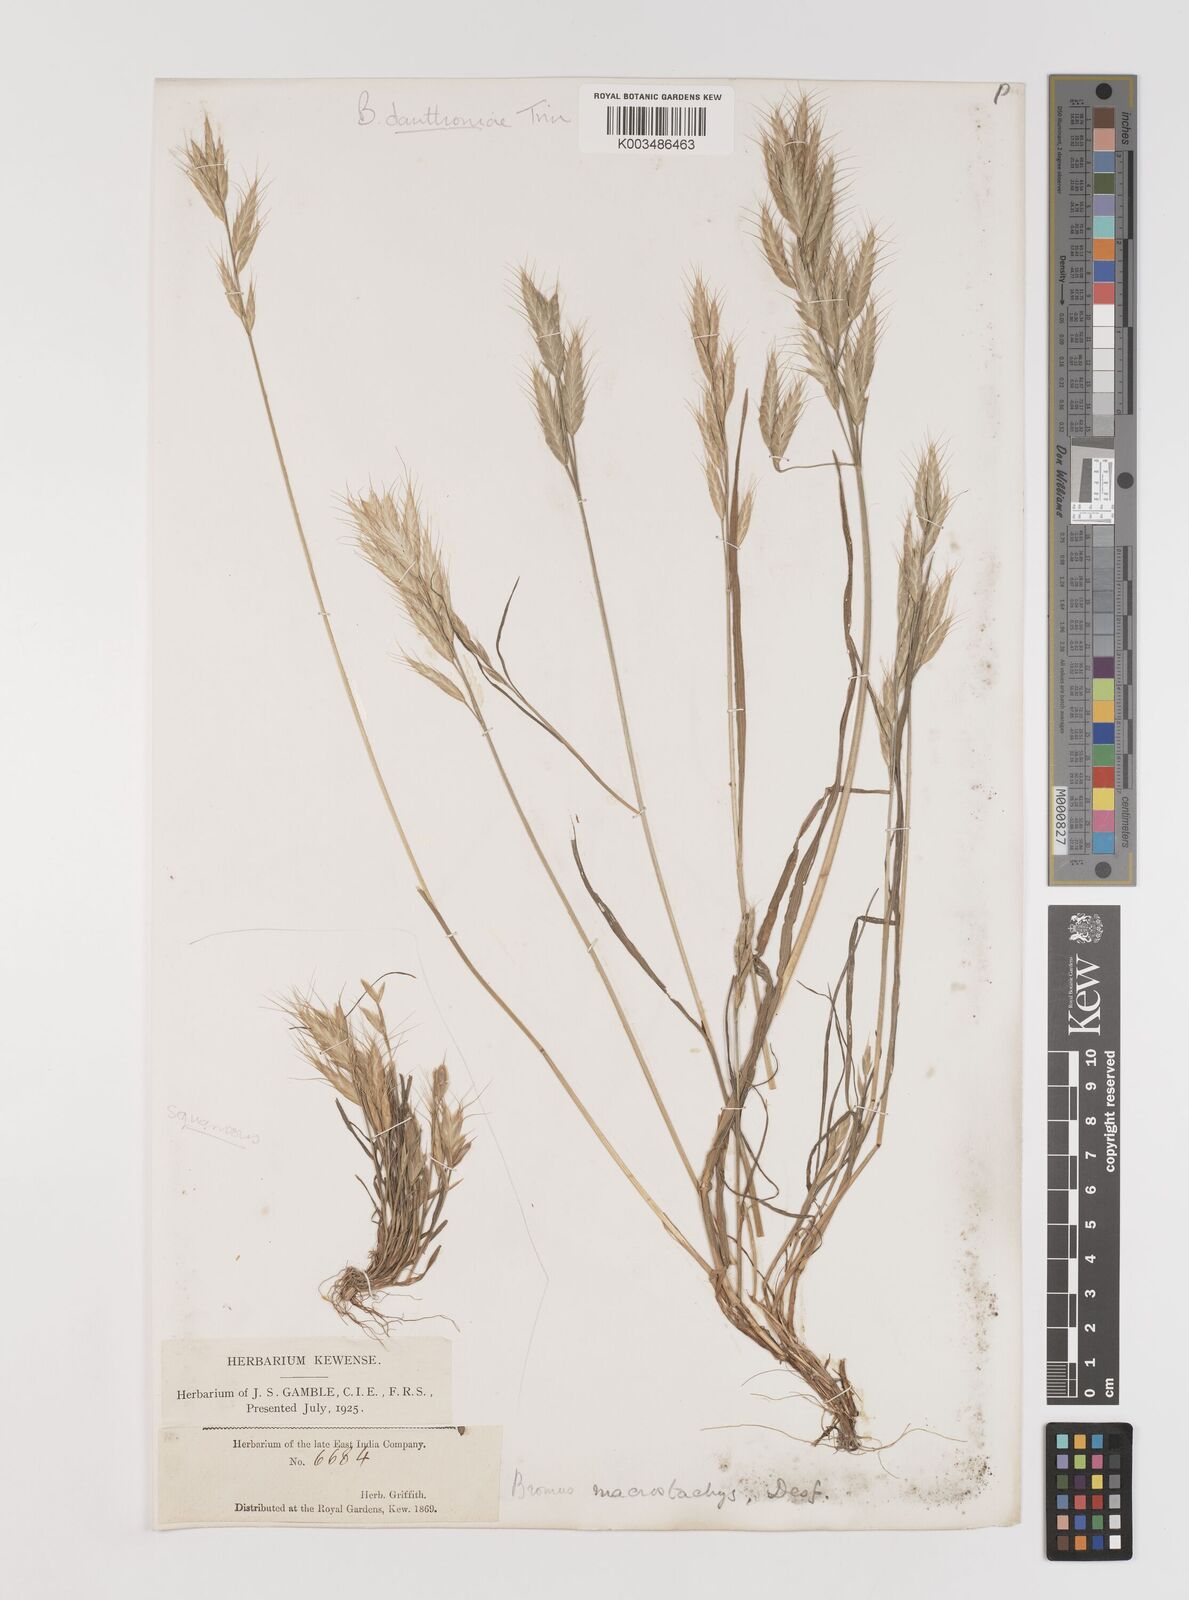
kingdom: Plantae
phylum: Tracheophyta
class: Liliopsida
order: Poales
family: Poaceae
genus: Bromus
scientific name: Bromus danthoniae
